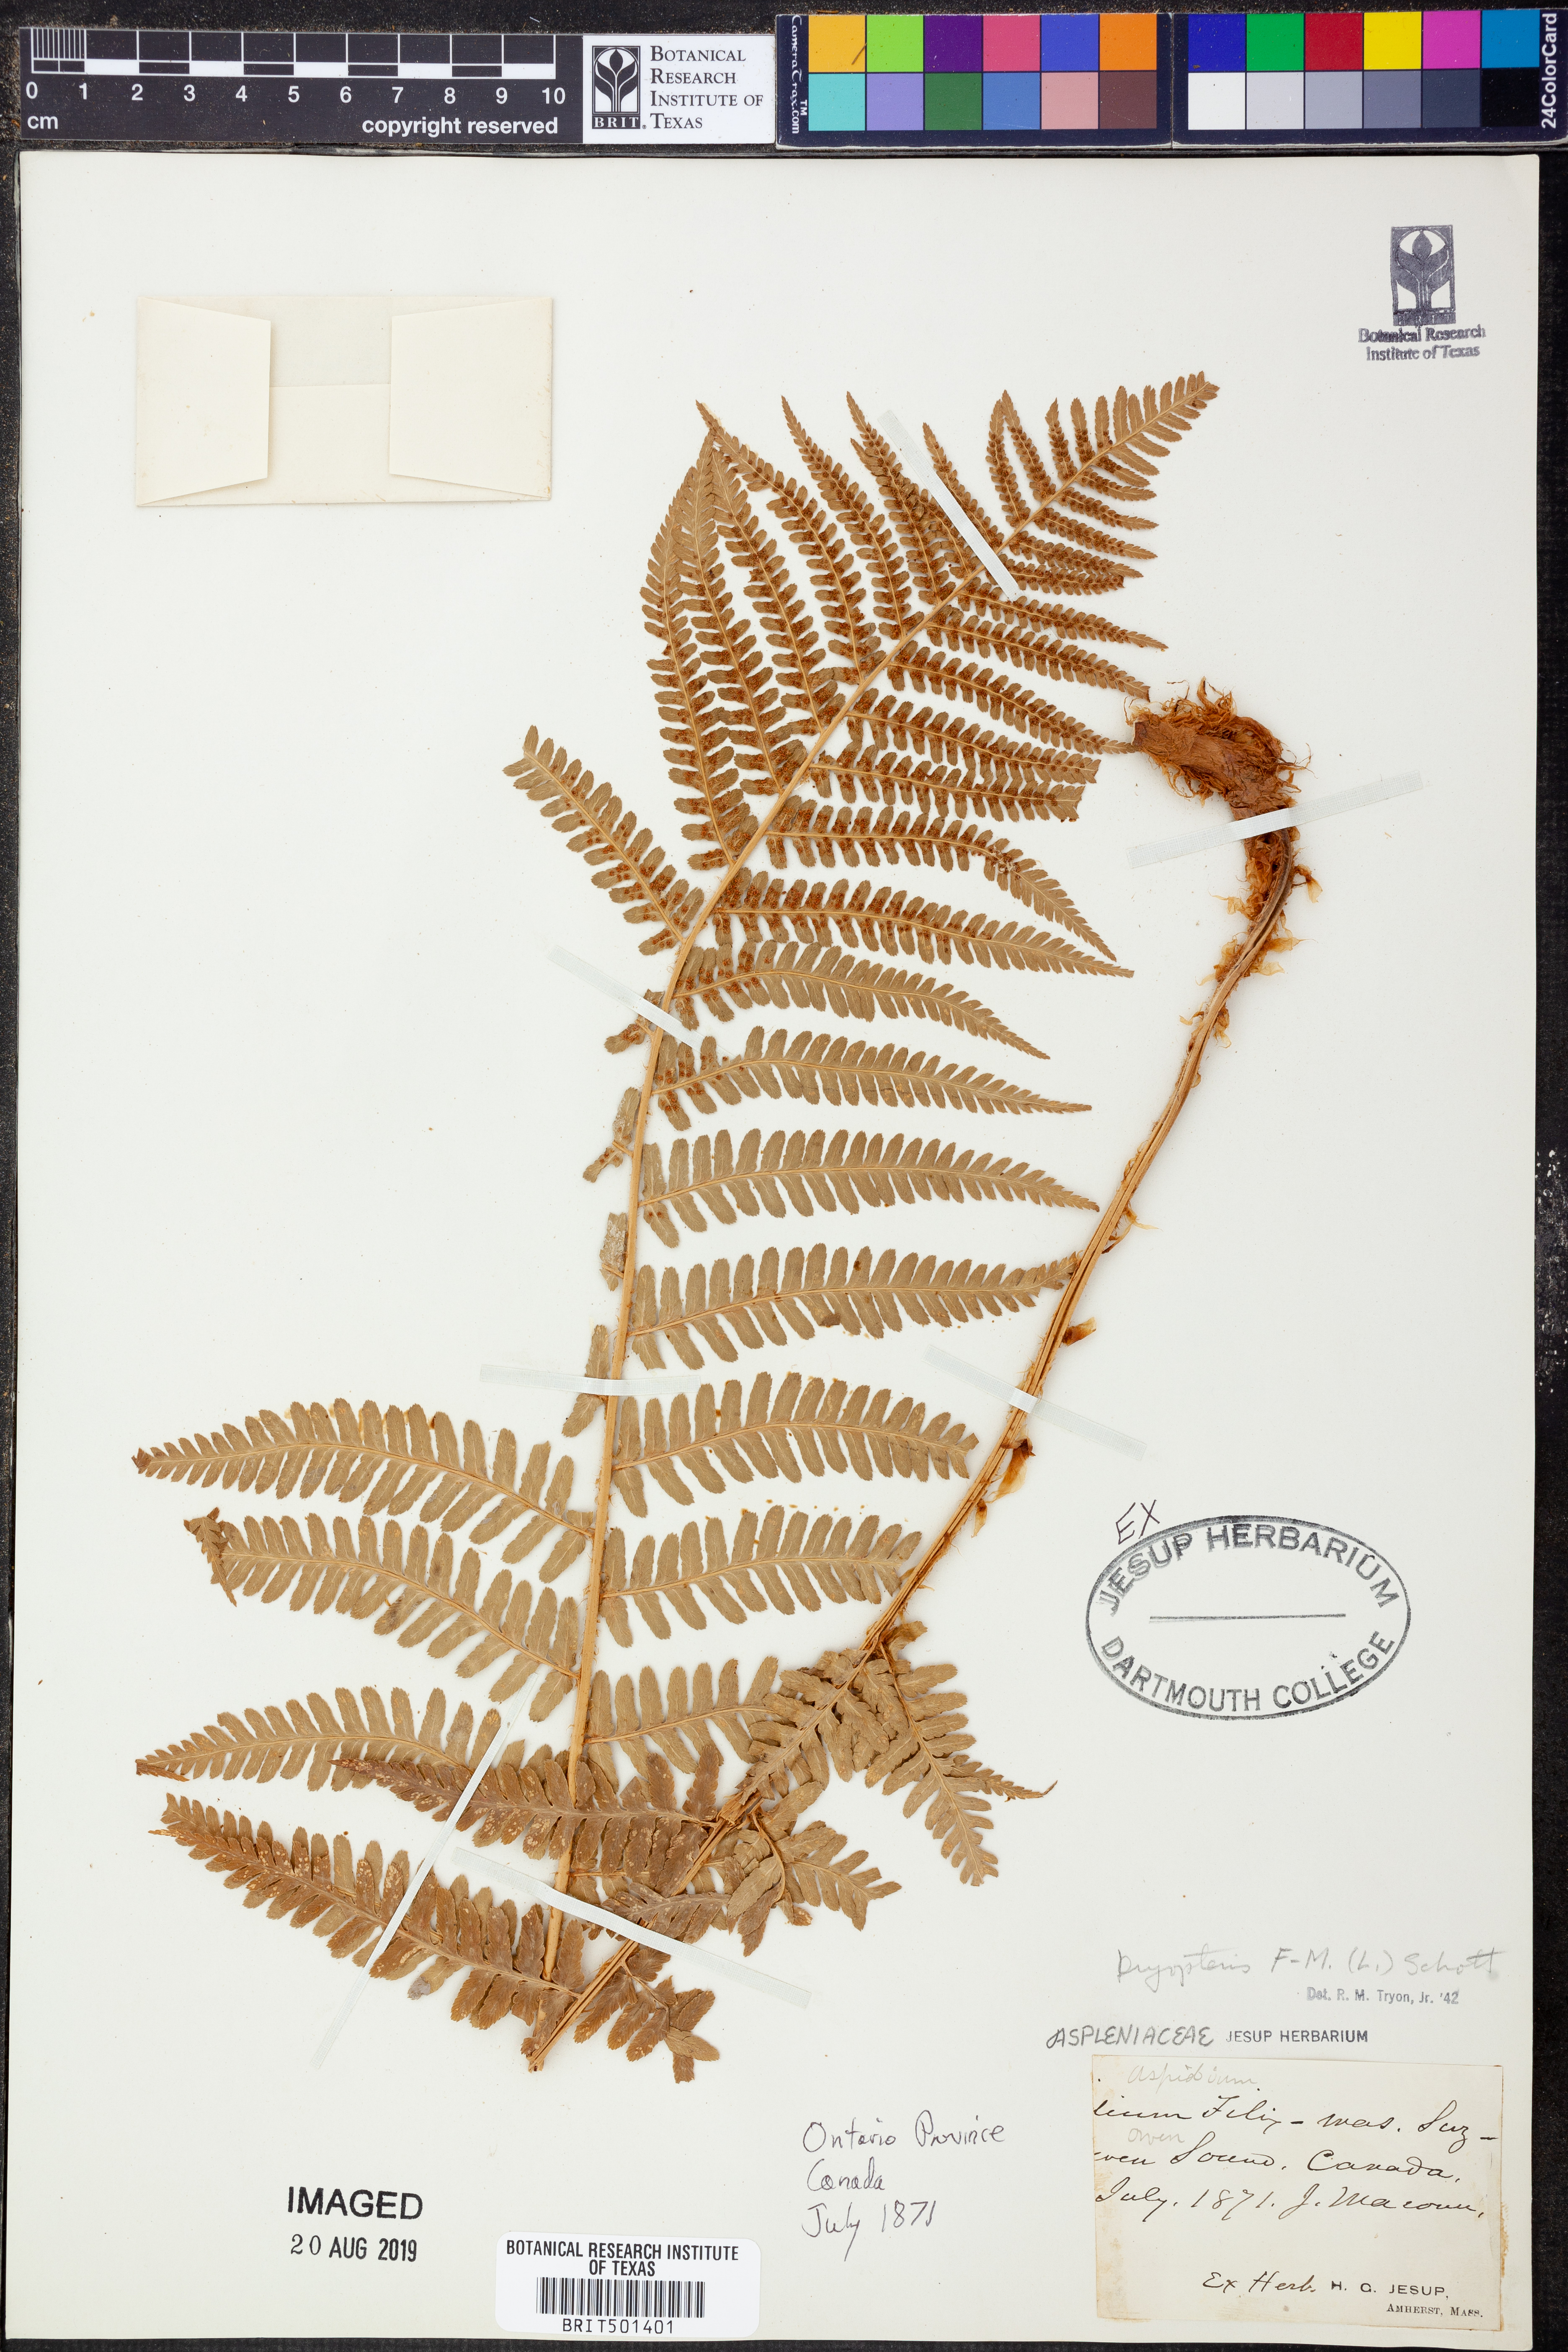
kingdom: Plantae
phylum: Tracheophyta
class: Polypodiopsida
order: Polypodiales
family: Dryopteridaceae
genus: Dryopteris
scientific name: Dryopteris filix-mas
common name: Male fern
